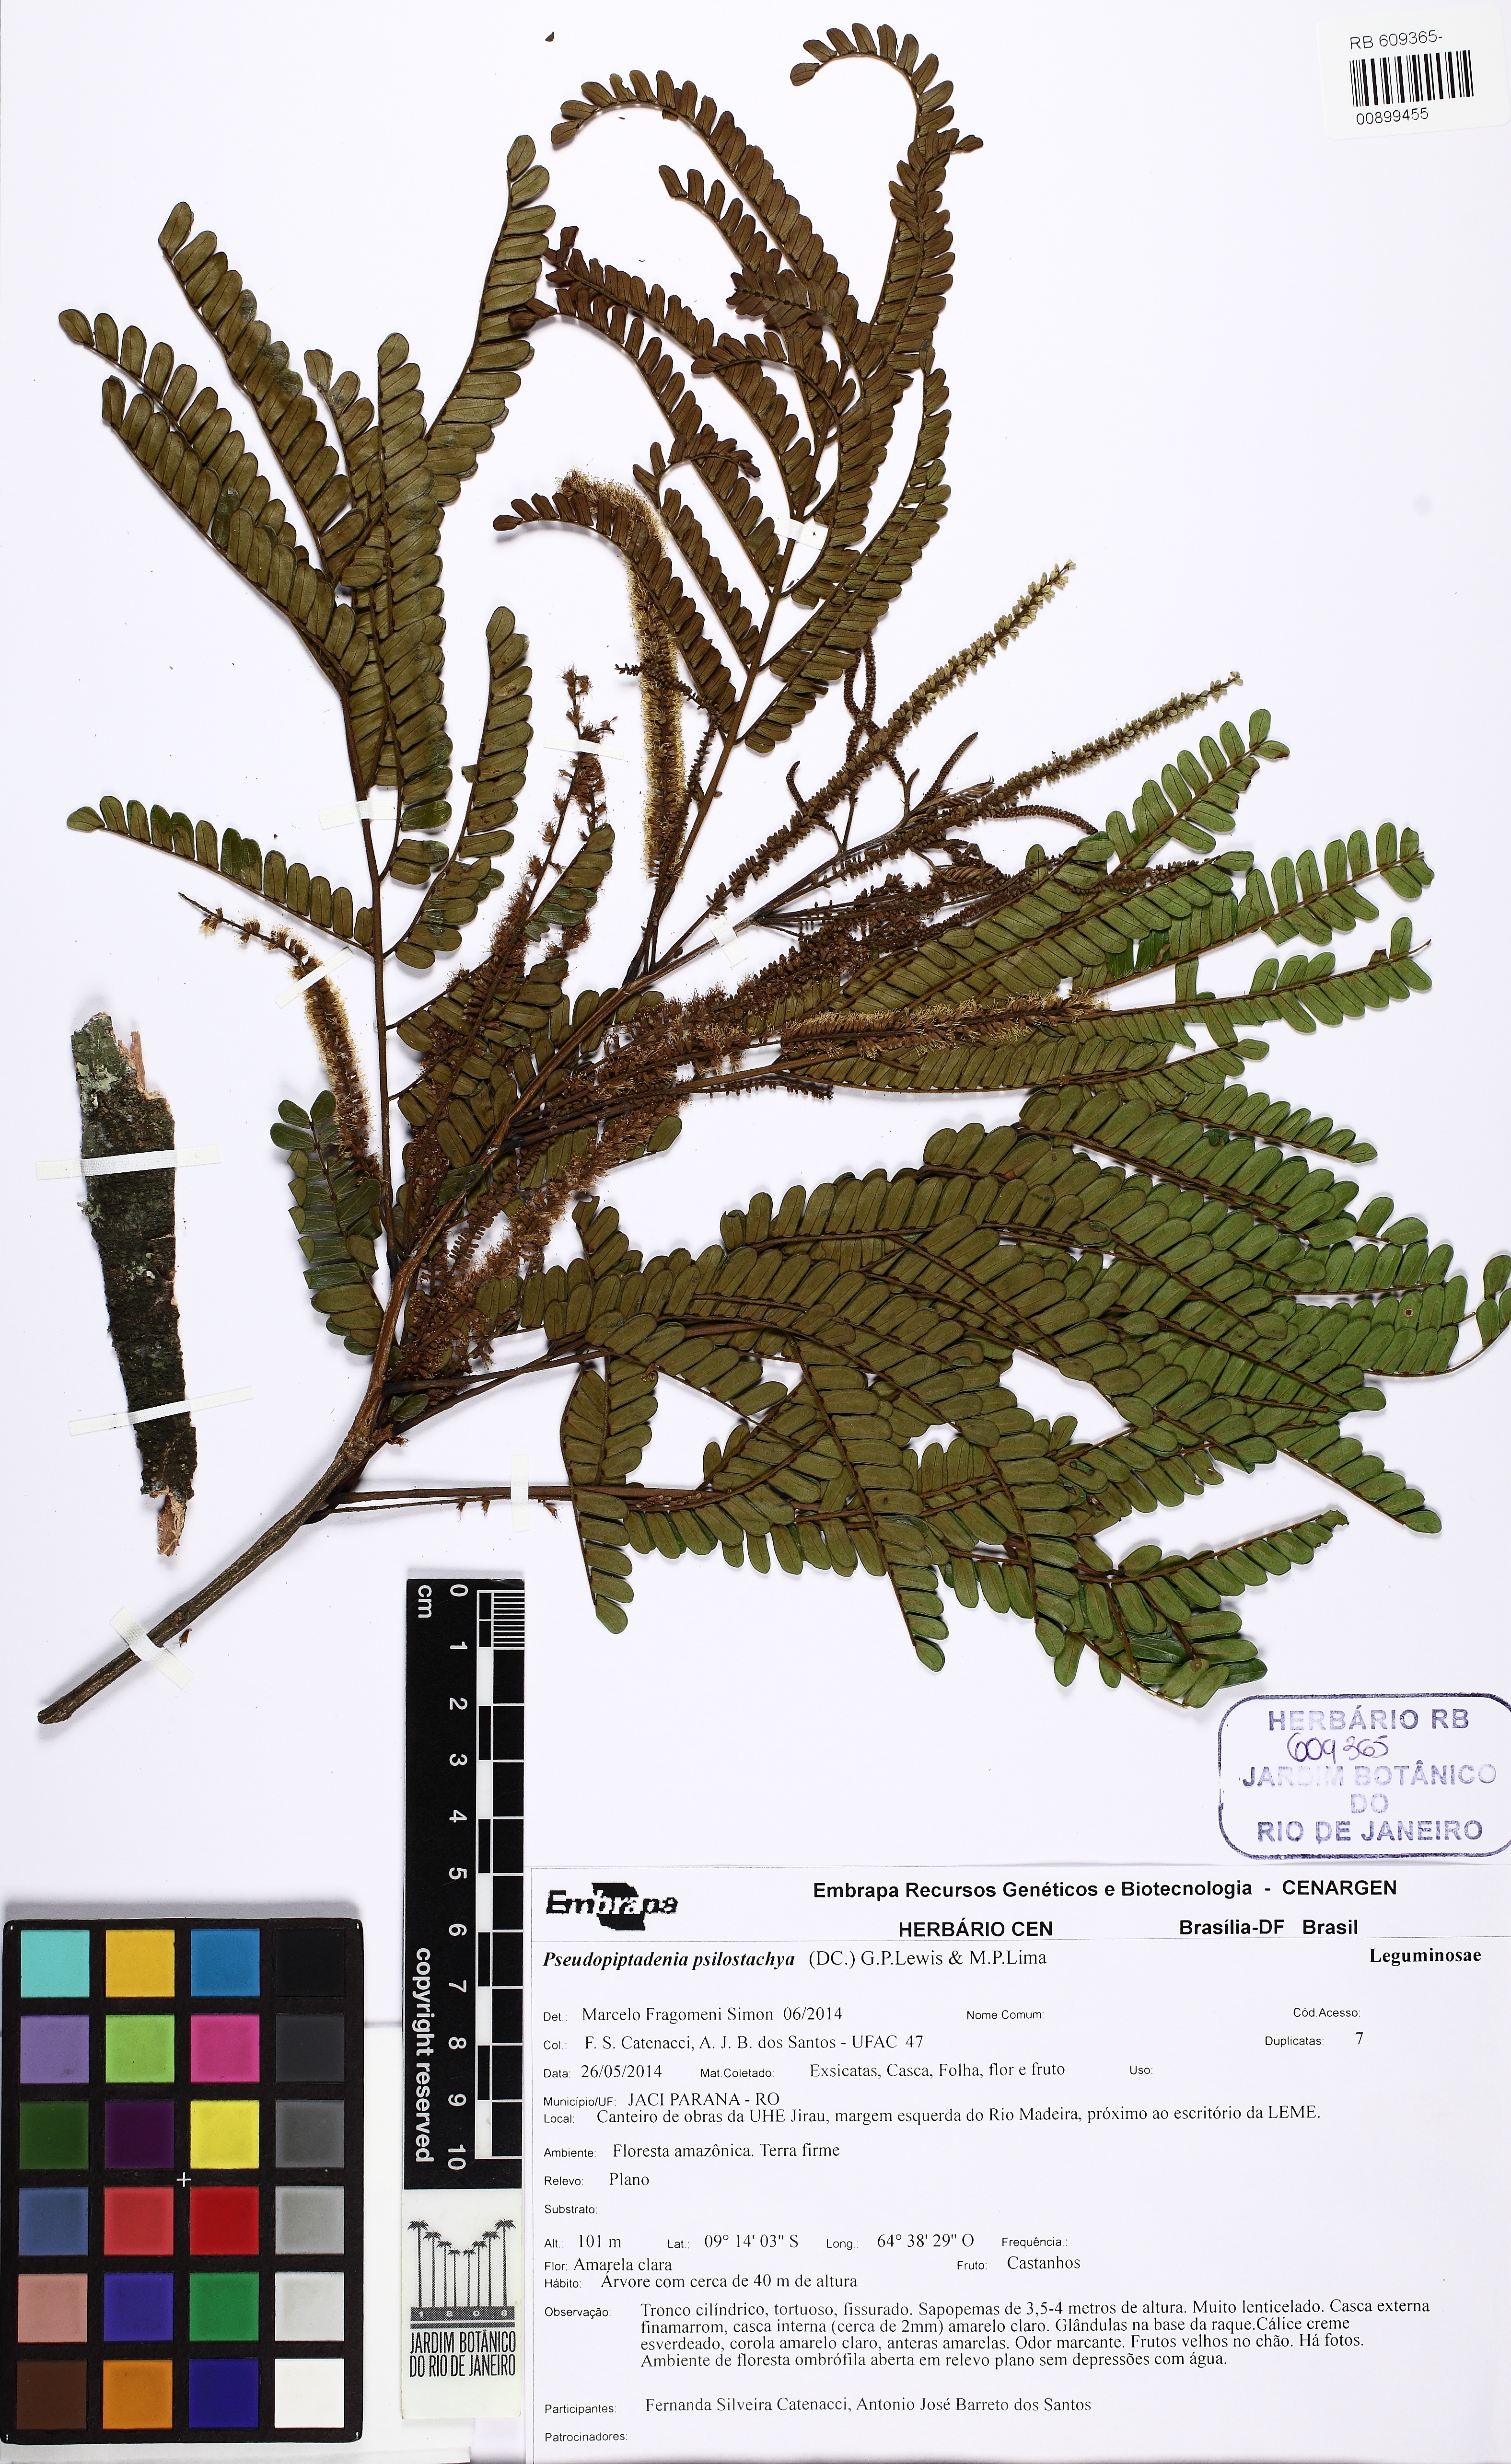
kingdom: Plantae
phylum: Tracheophyta
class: Magnoliopsida
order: Fabales
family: Fabaceae
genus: Pseudopiptadenia
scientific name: Pseudopiptadenia psilostachya
